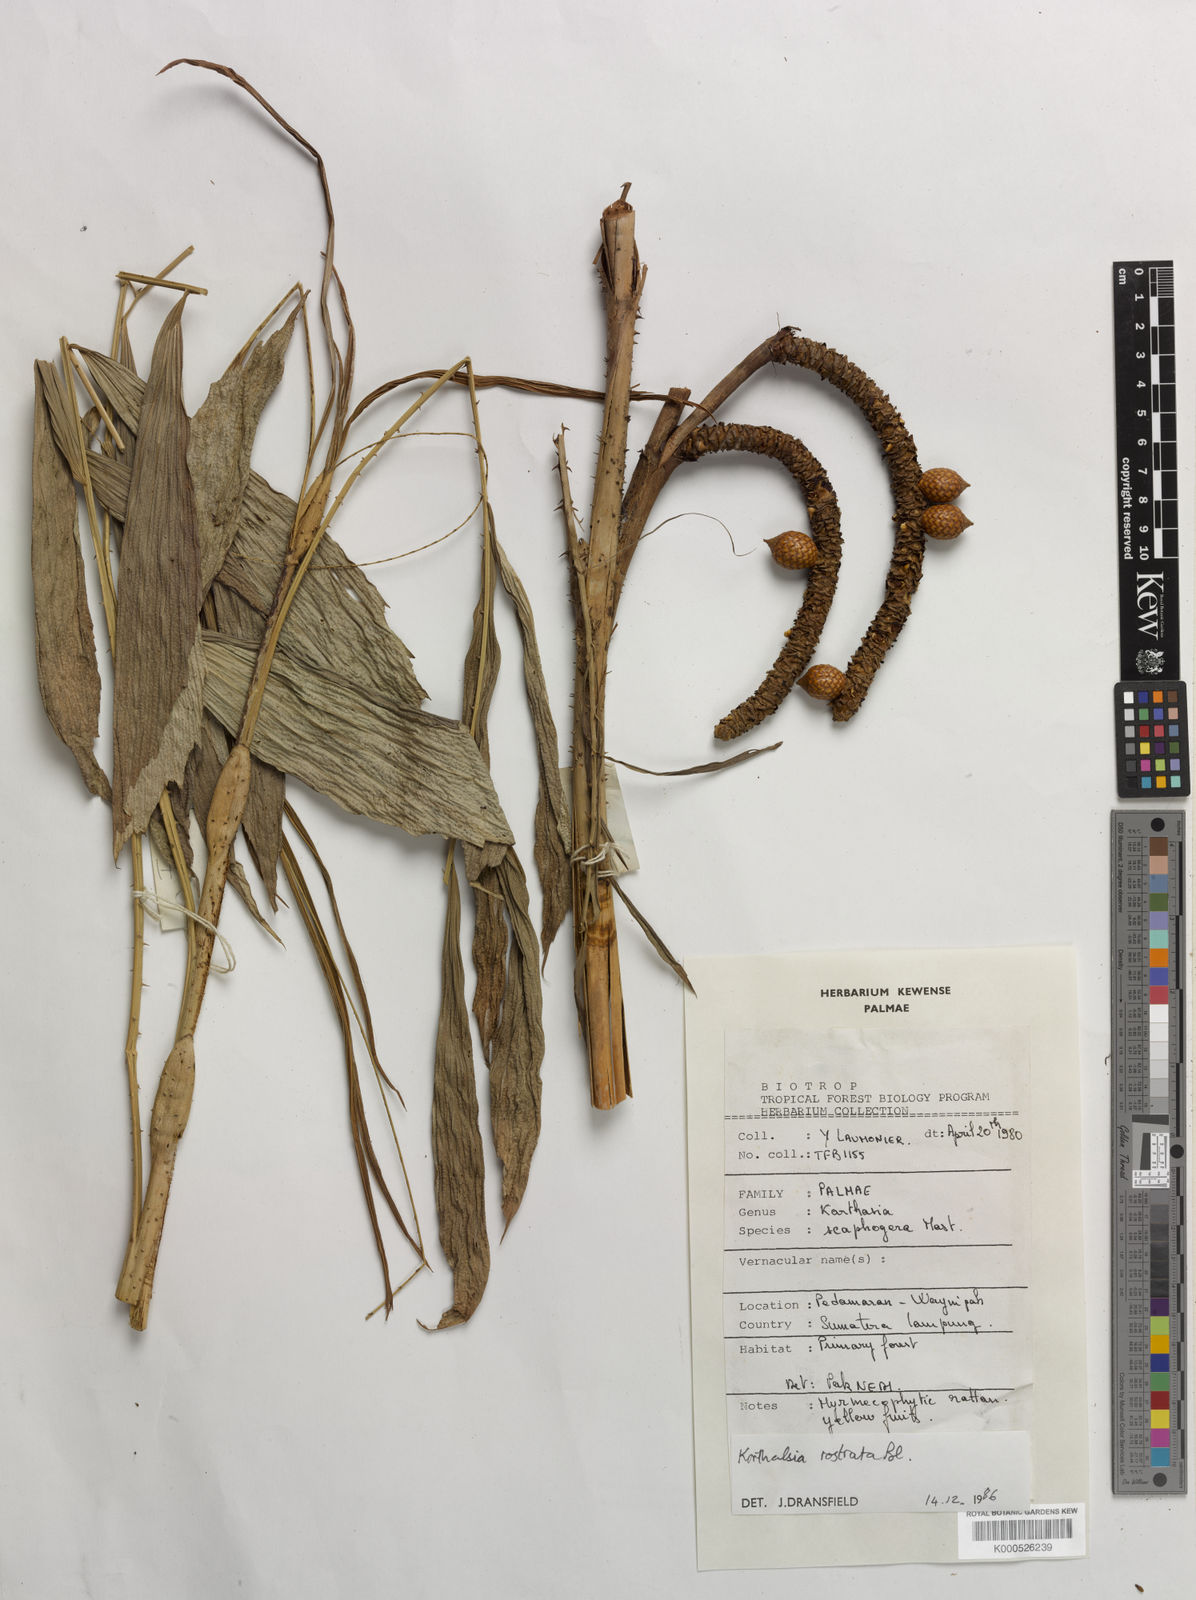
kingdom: Plantae
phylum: Tracheophyta
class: Liliopsida
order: Arecales
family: Arecaceae
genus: Korthalsia
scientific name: Korthalsia rostrata
